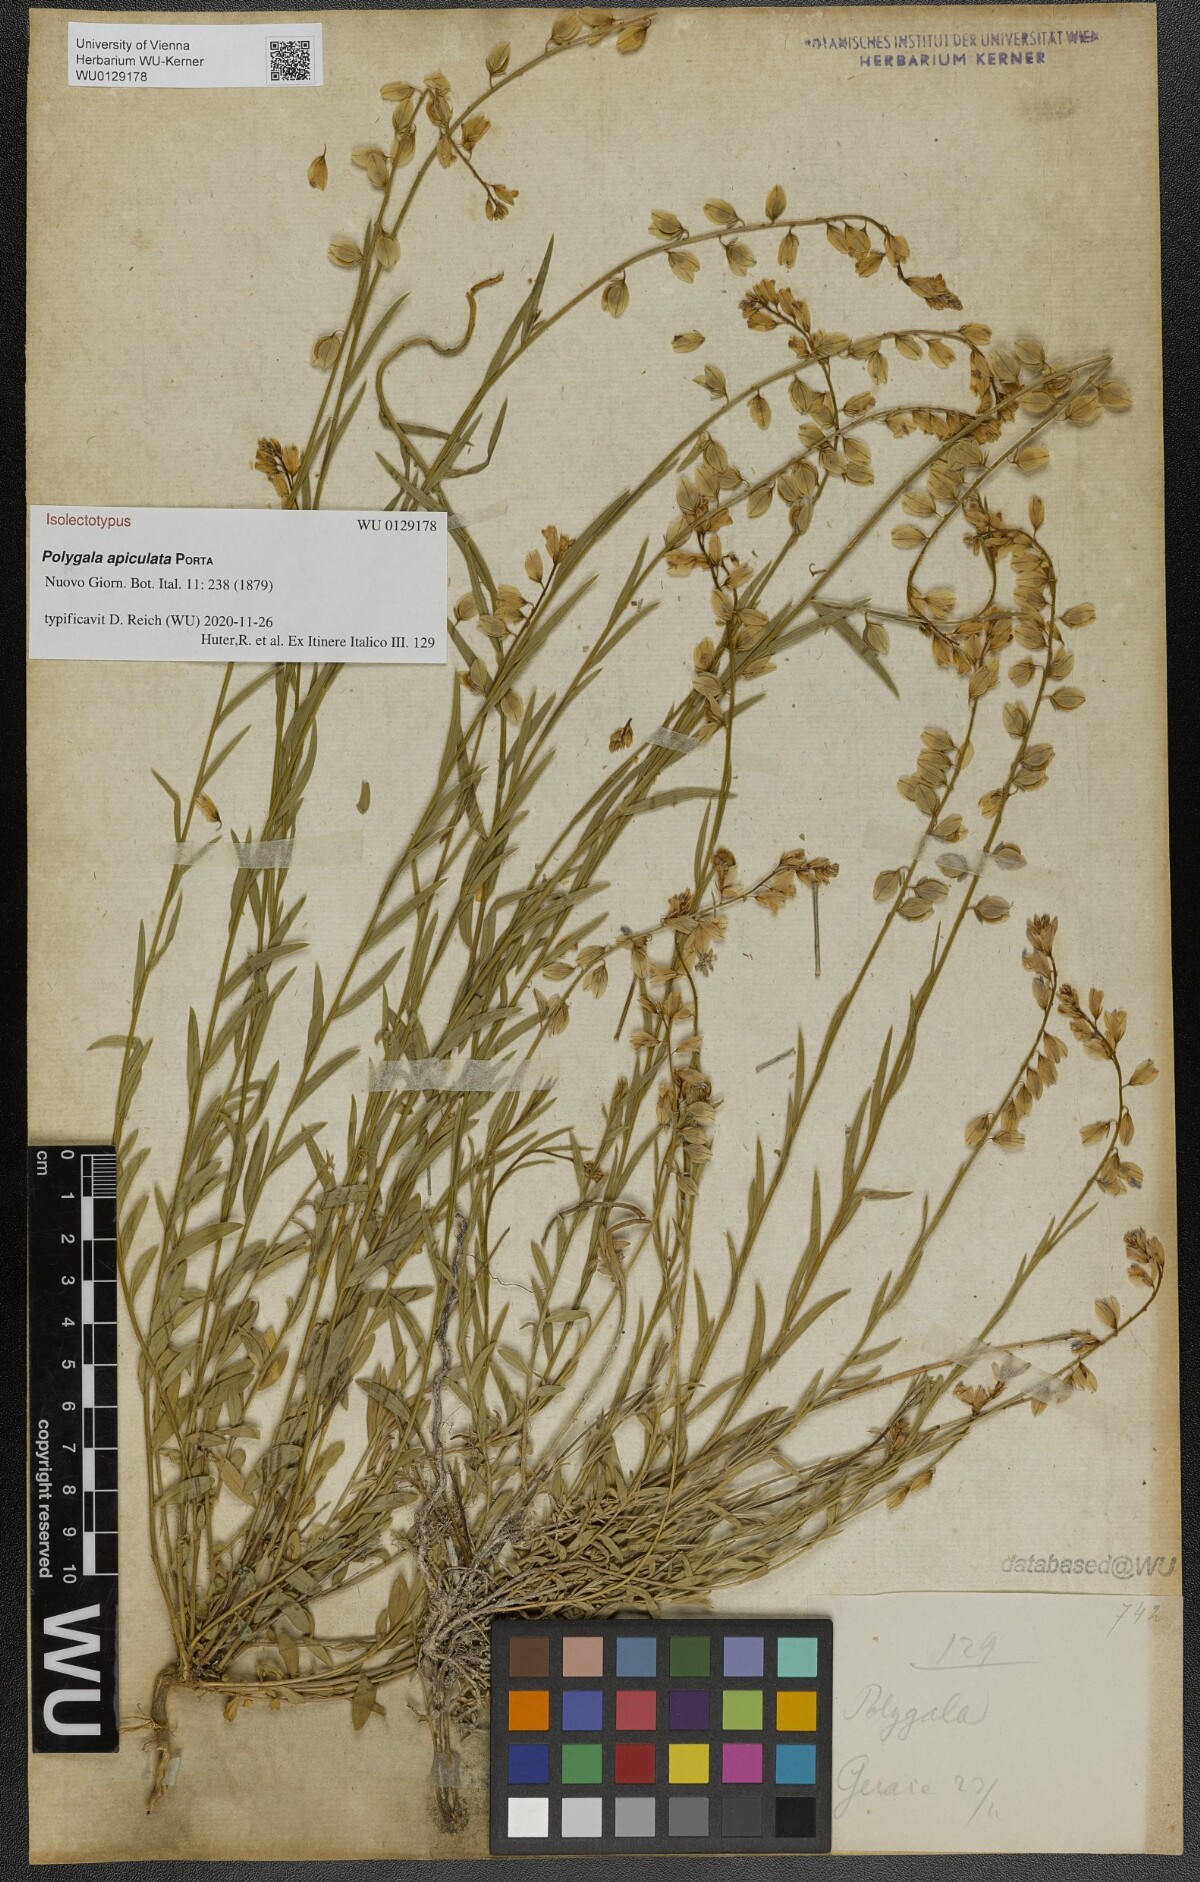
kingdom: Plantae
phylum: Tracheophyta
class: Magnoliopsida
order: Fabales
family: Polygalaceae
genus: Polygala
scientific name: Polygala apiculata
